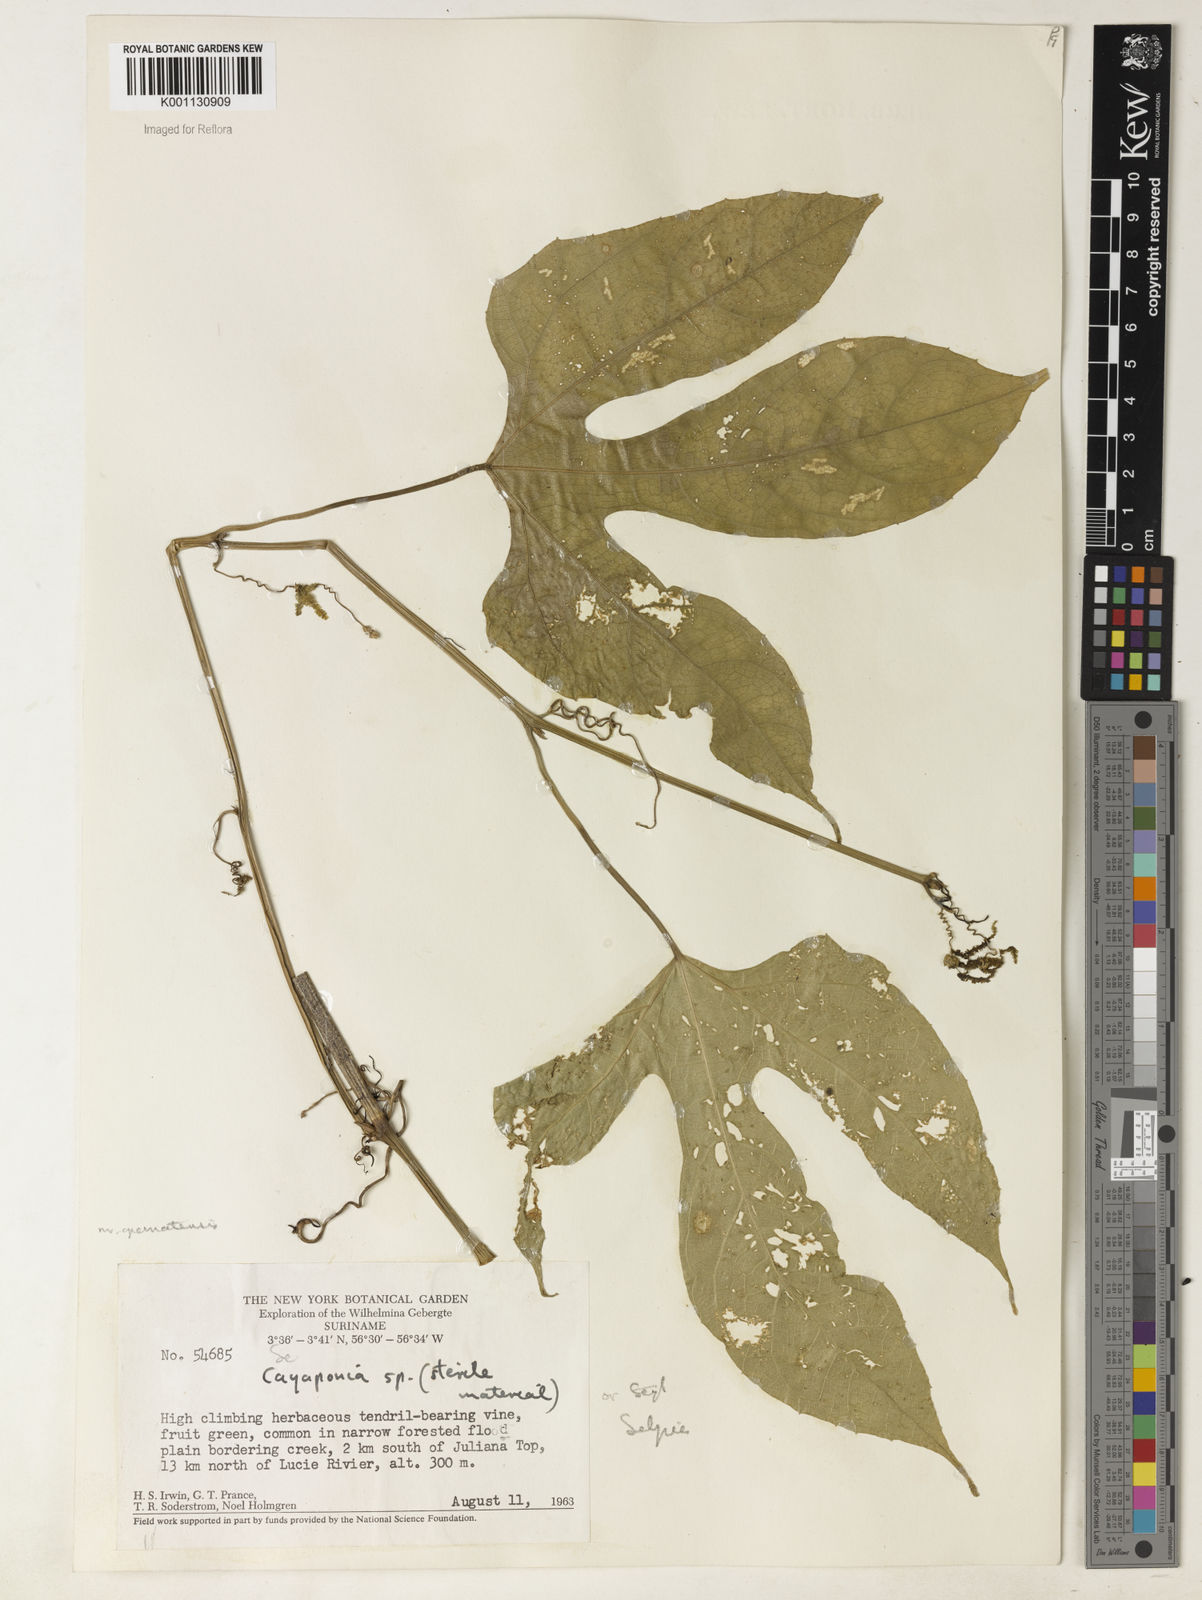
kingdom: Plantae
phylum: Tracheophyta
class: Magnoliopsida
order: Cucurbitales
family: Cucurbitaceae
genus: Cayaponia
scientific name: Cayaponia prunifera
